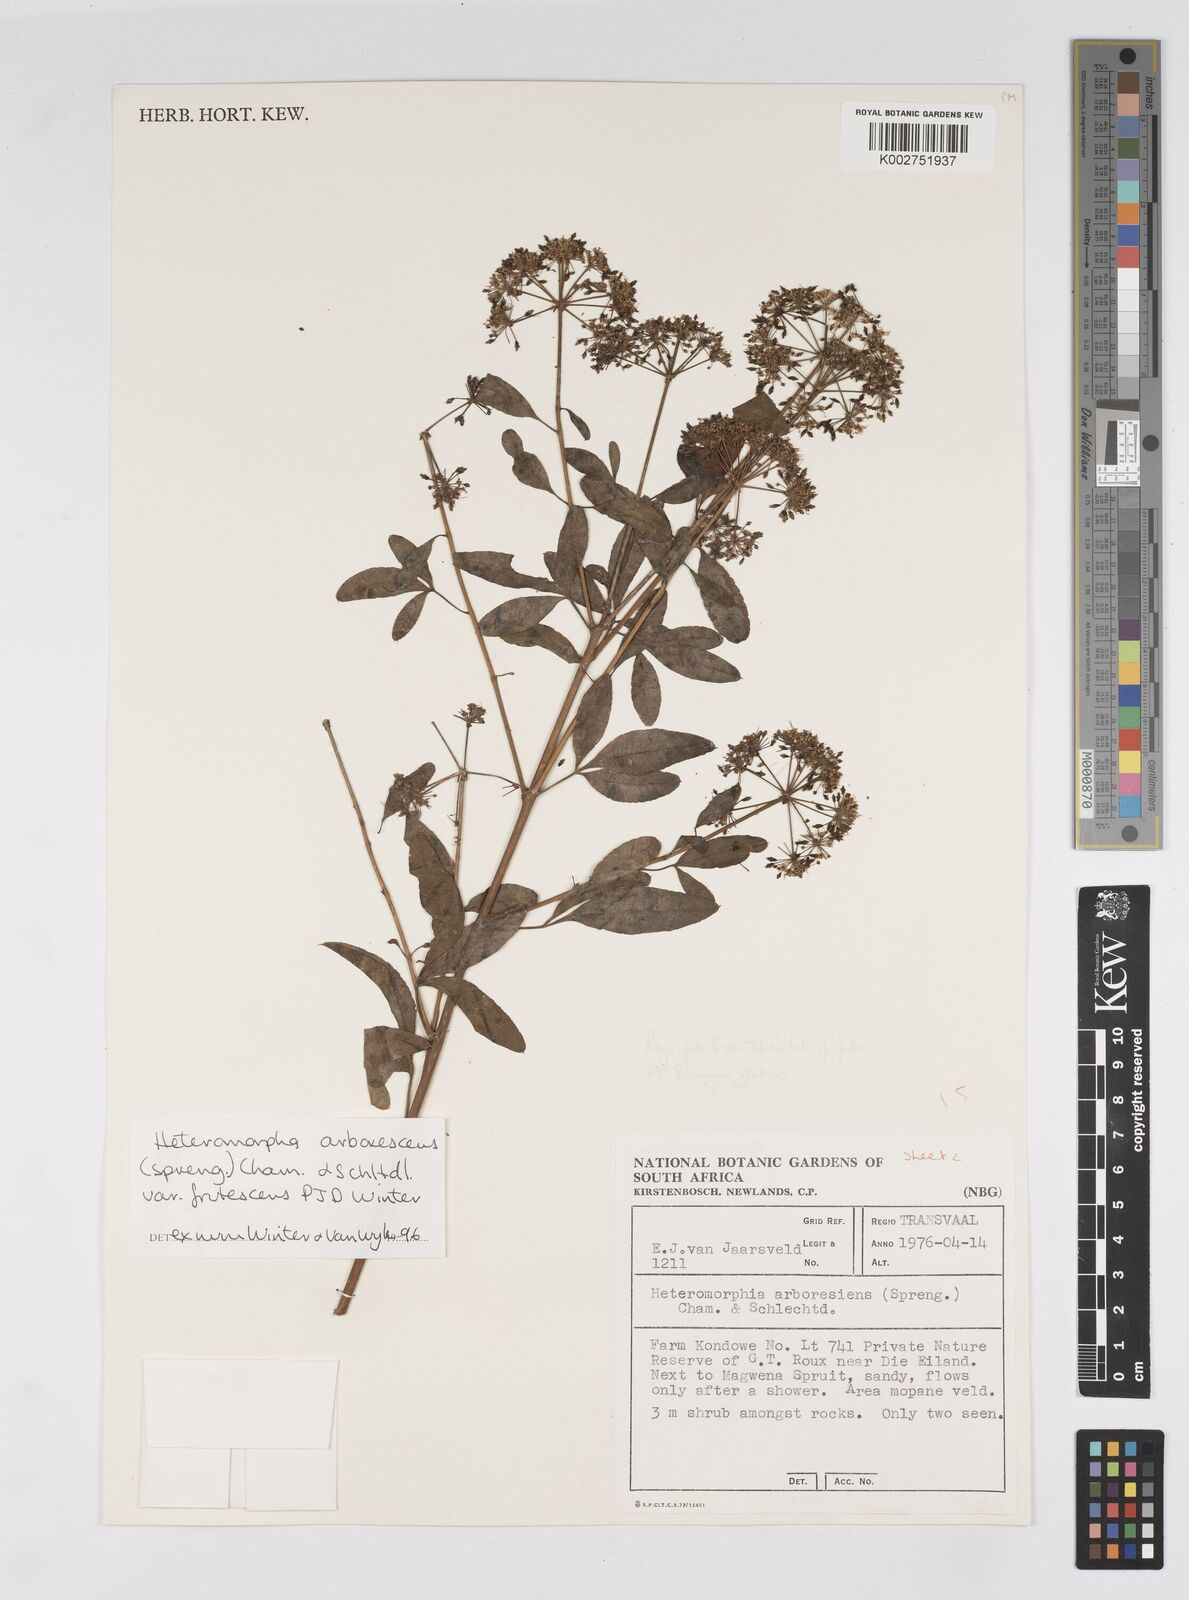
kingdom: Plantae
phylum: Tracheophyta
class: Magnoliopsida
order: Apiales
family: Apiaceae
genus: Heteromorpha
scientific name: Heteromorpha arborescens
